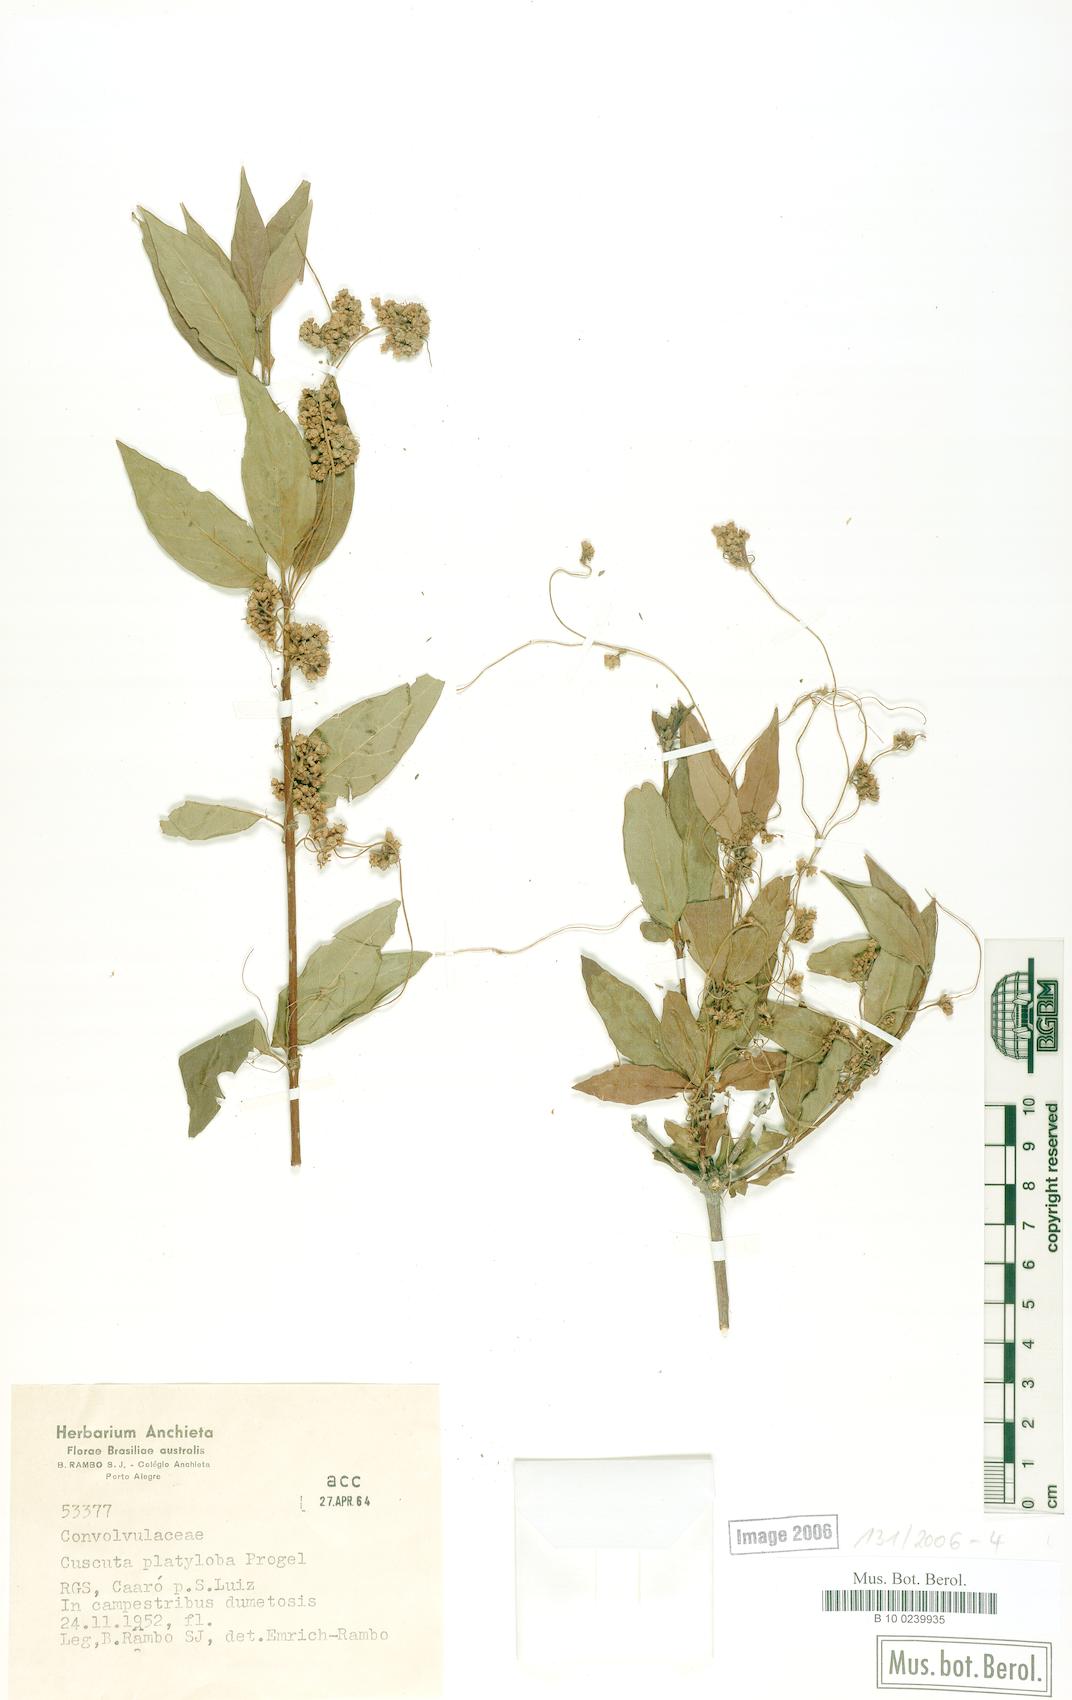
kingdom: Plantae
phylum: Tracheophyta
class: Magnoliopsida
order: Solanales
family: Convolvulaceae
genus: Cuscuta
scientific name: Cuscuta platyloba
